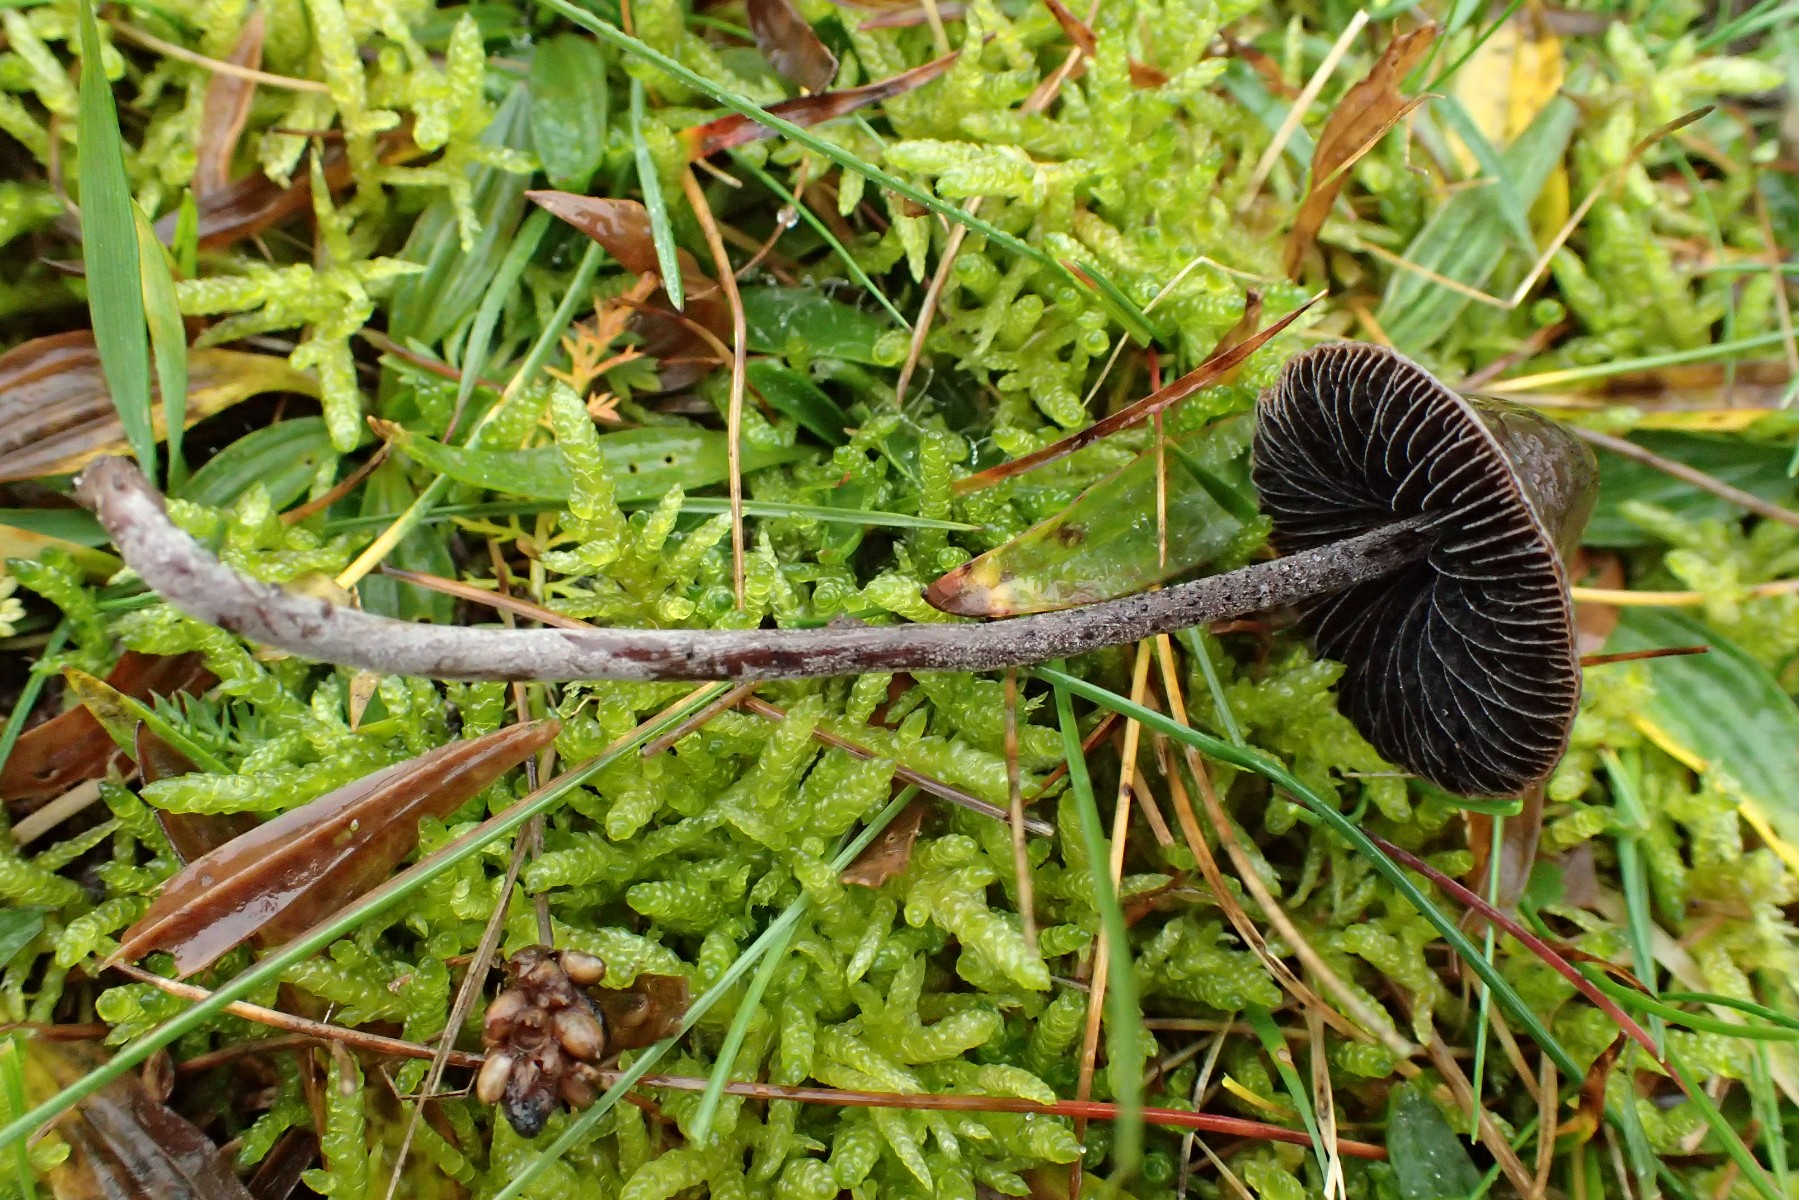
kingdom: Fungi
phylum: Basidiomycota
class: Agaricomycetes
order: Agaricales
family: Bolbitiaceae
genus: Panaeolus
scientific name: Panaeolus acuminatus
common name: høj glanshat
